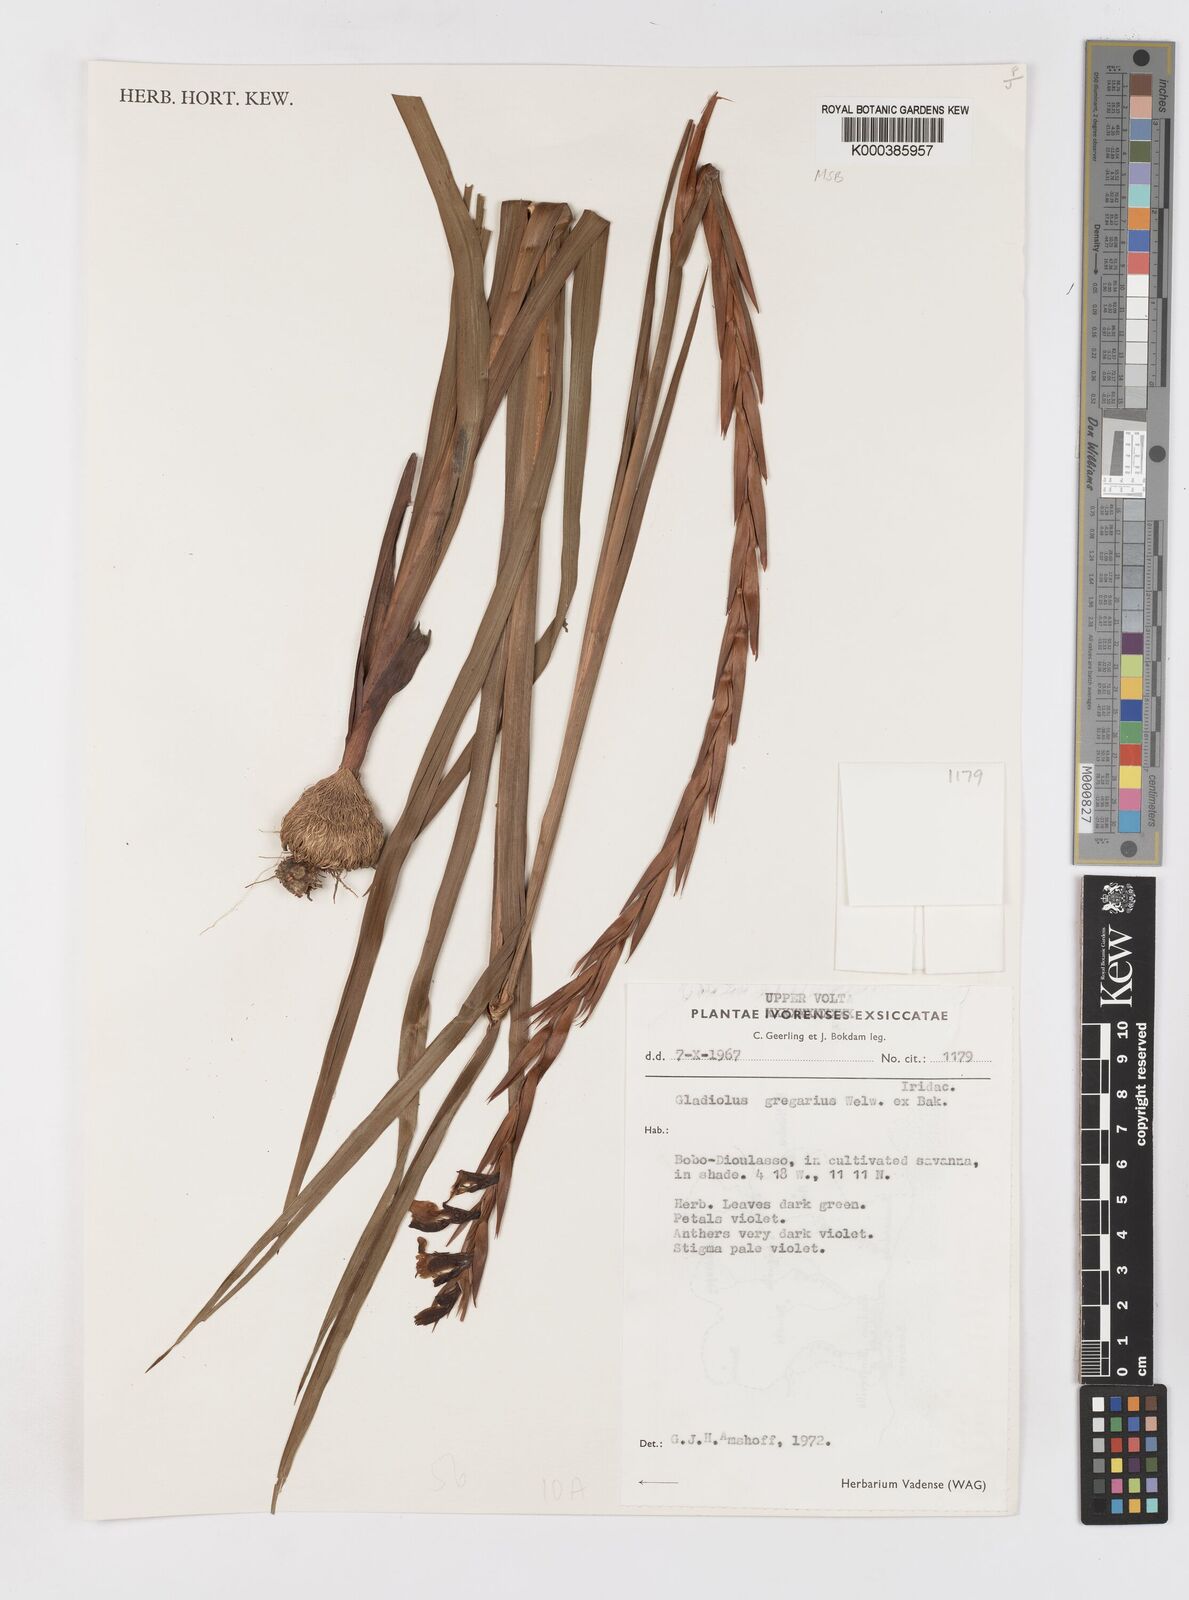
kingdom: Plantae
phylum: Tracheophyta
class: Liliopsida
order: Asparagales
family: Iridaceae
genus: Gladiolus
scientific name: Gladiolus gregarius
